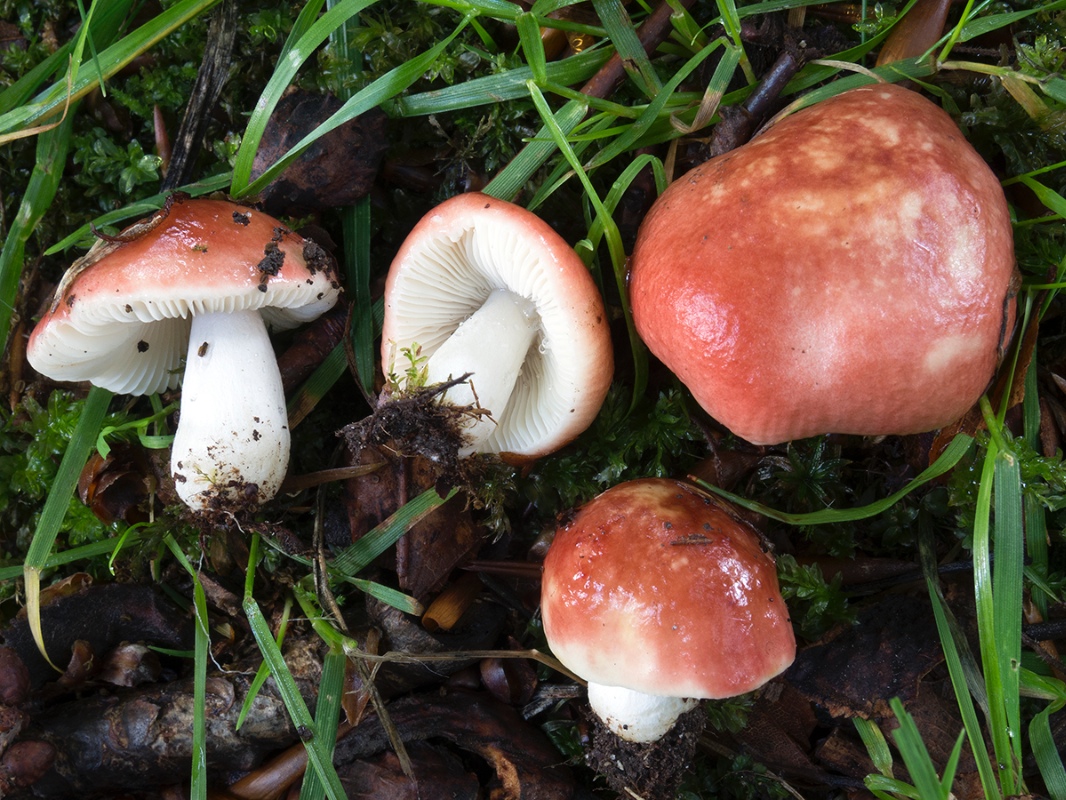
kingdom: Fungi
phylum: Basidiomycota
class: Agaricomycetes
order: Russulales
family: Russulaceae
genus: Russula
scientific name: Russula minutula
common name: liden skørhat
